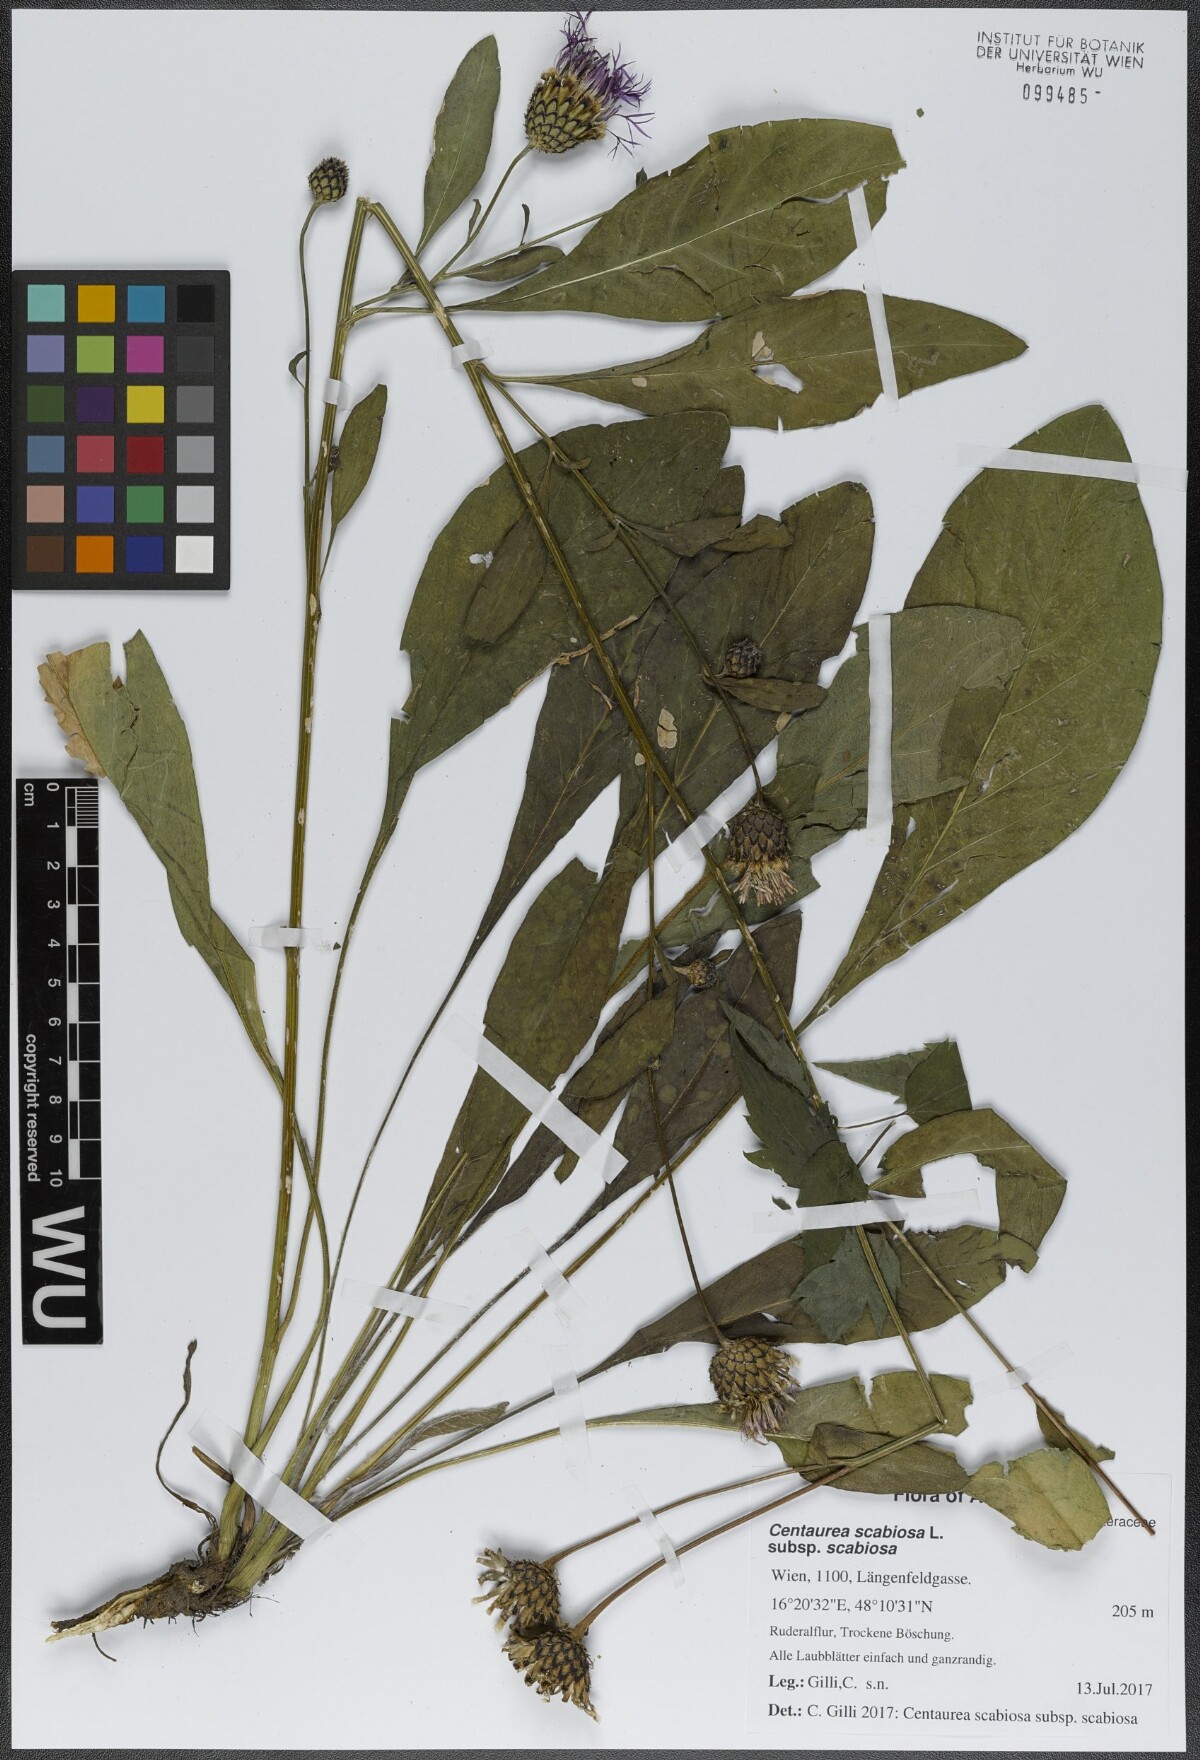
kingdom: Plantae
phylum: Tracheophyta
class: Magnoliopsida
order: Asterales
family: Asteraceae
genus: Centaurea
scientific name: Centaurea scabiosa
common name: Greater knapweed
